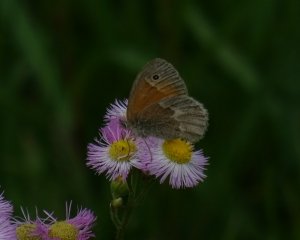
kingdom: Animalia
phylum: Arthropoda
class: Insecta
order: Lepidoptera
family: Nymphalidae
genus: Coenonympha
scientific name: Coenonympha tullia
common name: Large Heath
